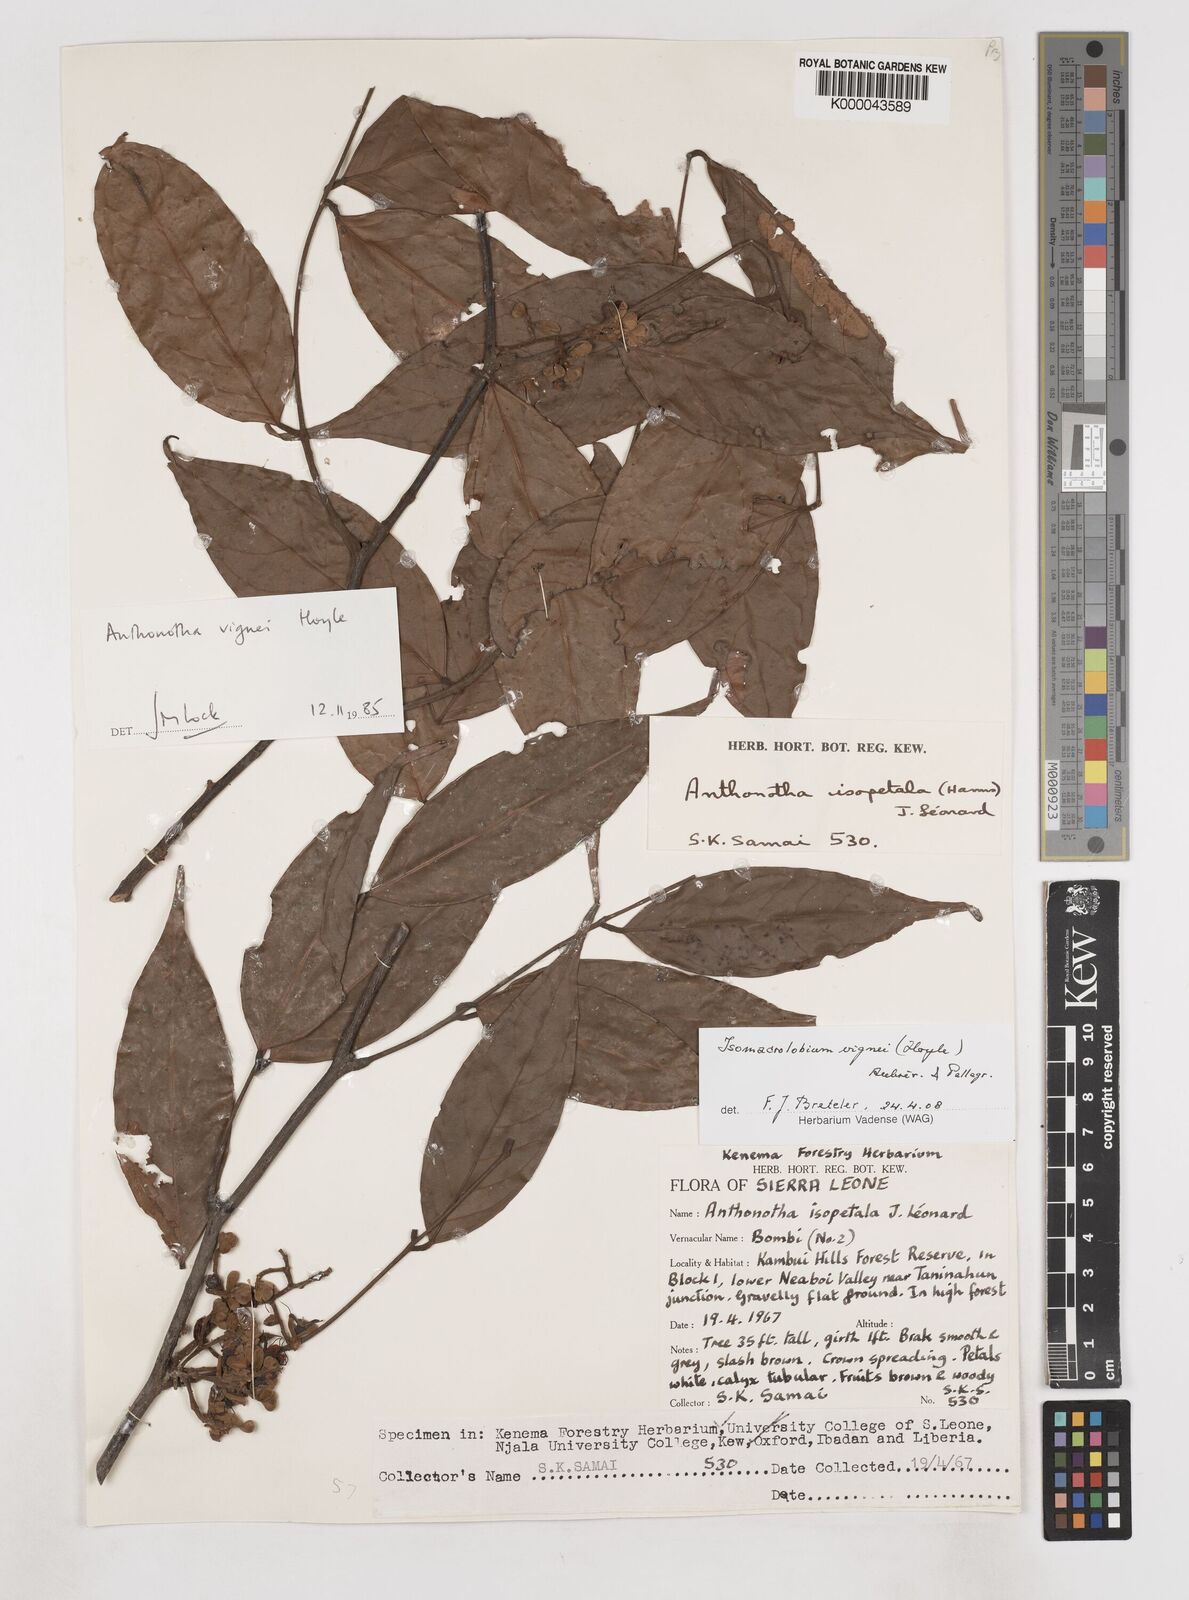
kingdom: Plantae
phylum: Tracheophyta
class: Magnoliopsida
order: Fabales
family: Fabaceae
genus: Englerodendron
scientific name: Englerodendron vignei
